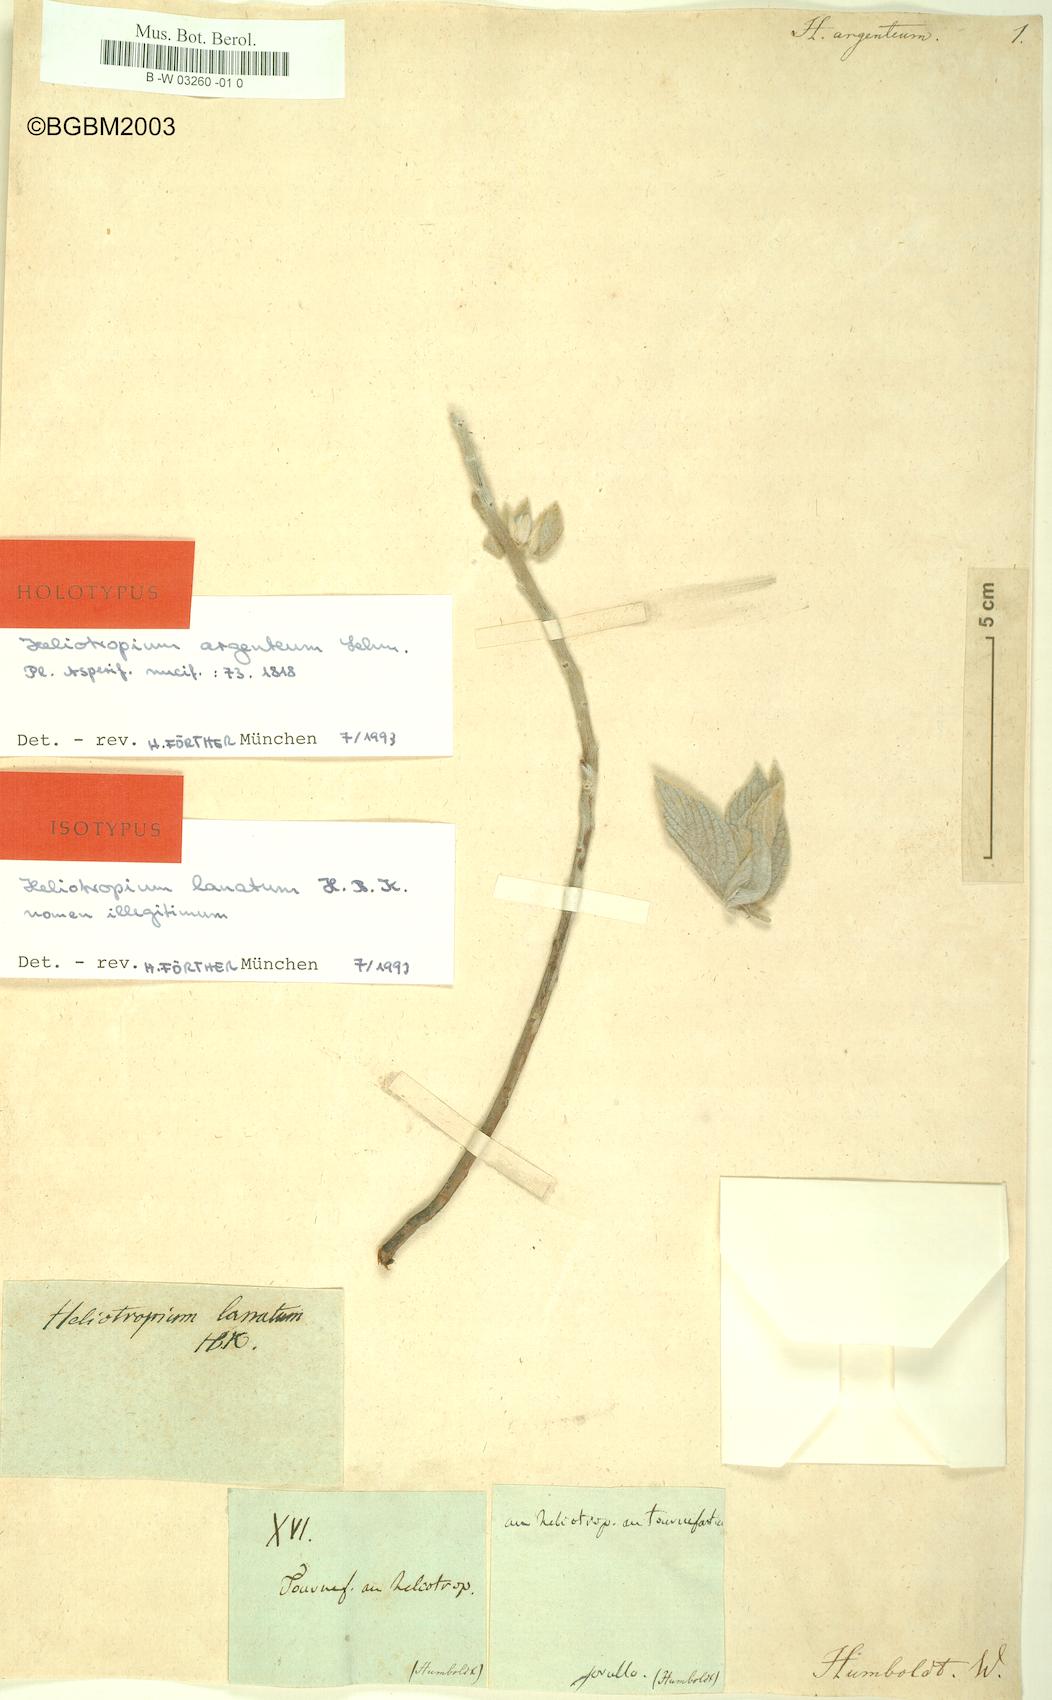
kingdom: Plantae
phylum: Tracheophyta
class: Magnoliopsida
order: Boraginales
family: Heliotropiaceae
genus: Heliotropium
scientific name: Heliotropium argenteum
